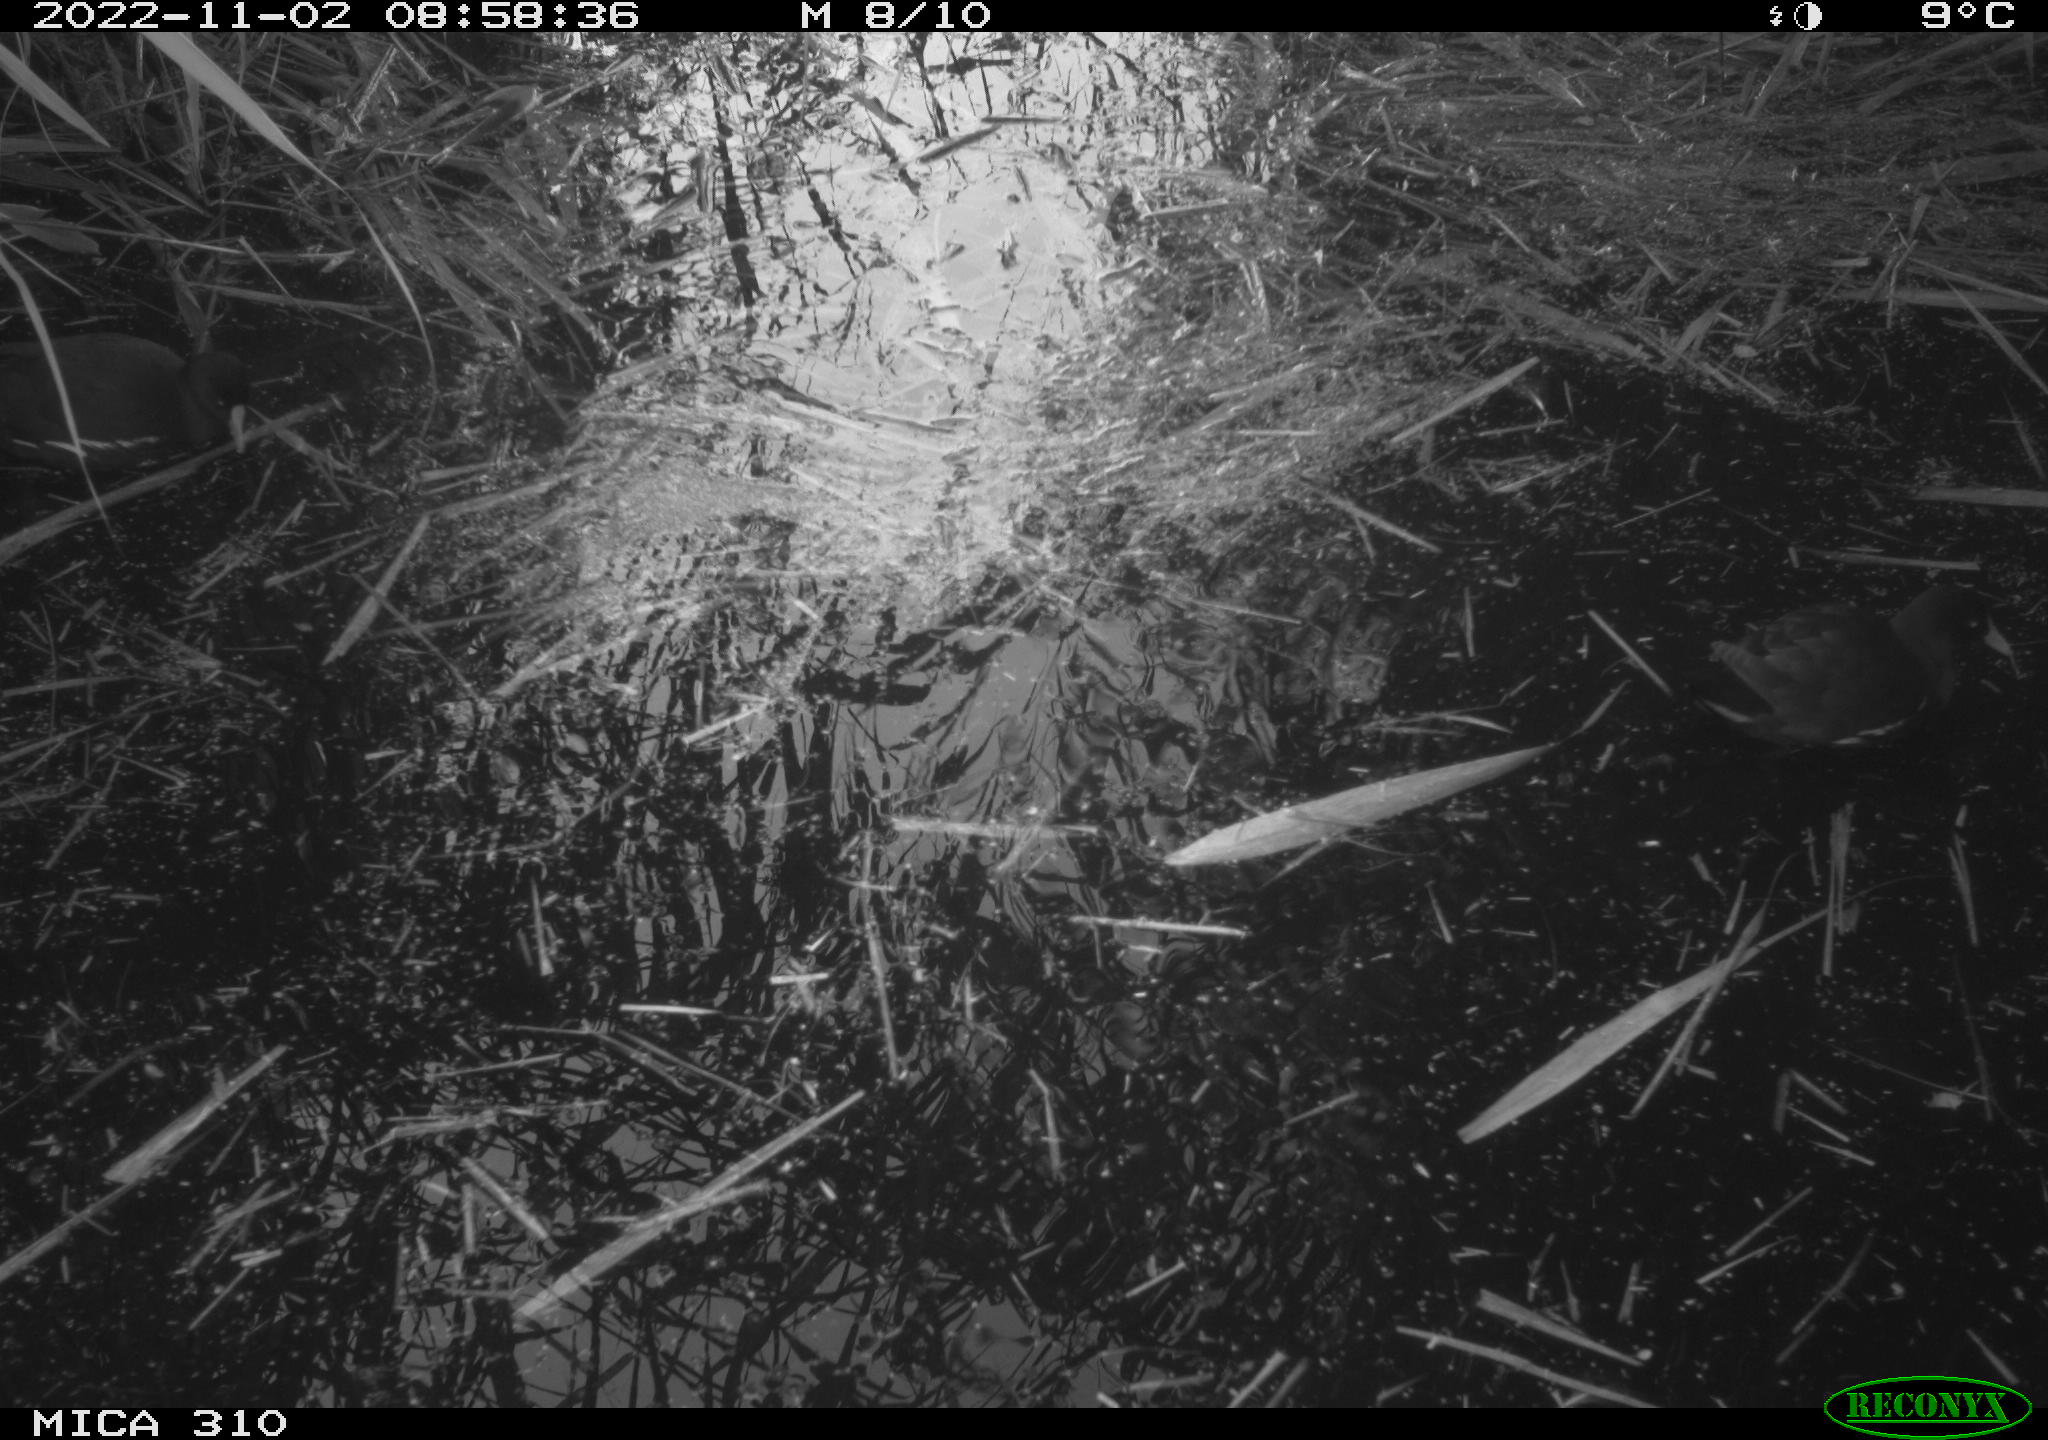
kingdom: Animalia
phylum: Chordata
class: Aves
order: Gruiformes
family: Rallidae
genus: Gallinula
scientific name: Gallinula chloropus
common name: Common moorhen
